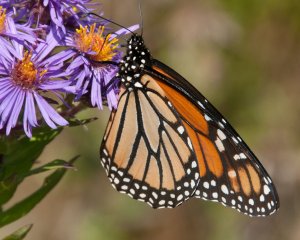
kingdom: Animalia
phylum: Arthropoda
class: Insecta
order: Lepidoptera
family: Nymphalidae
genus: Danaus
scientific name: Danaus plexippus
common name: Monarch
